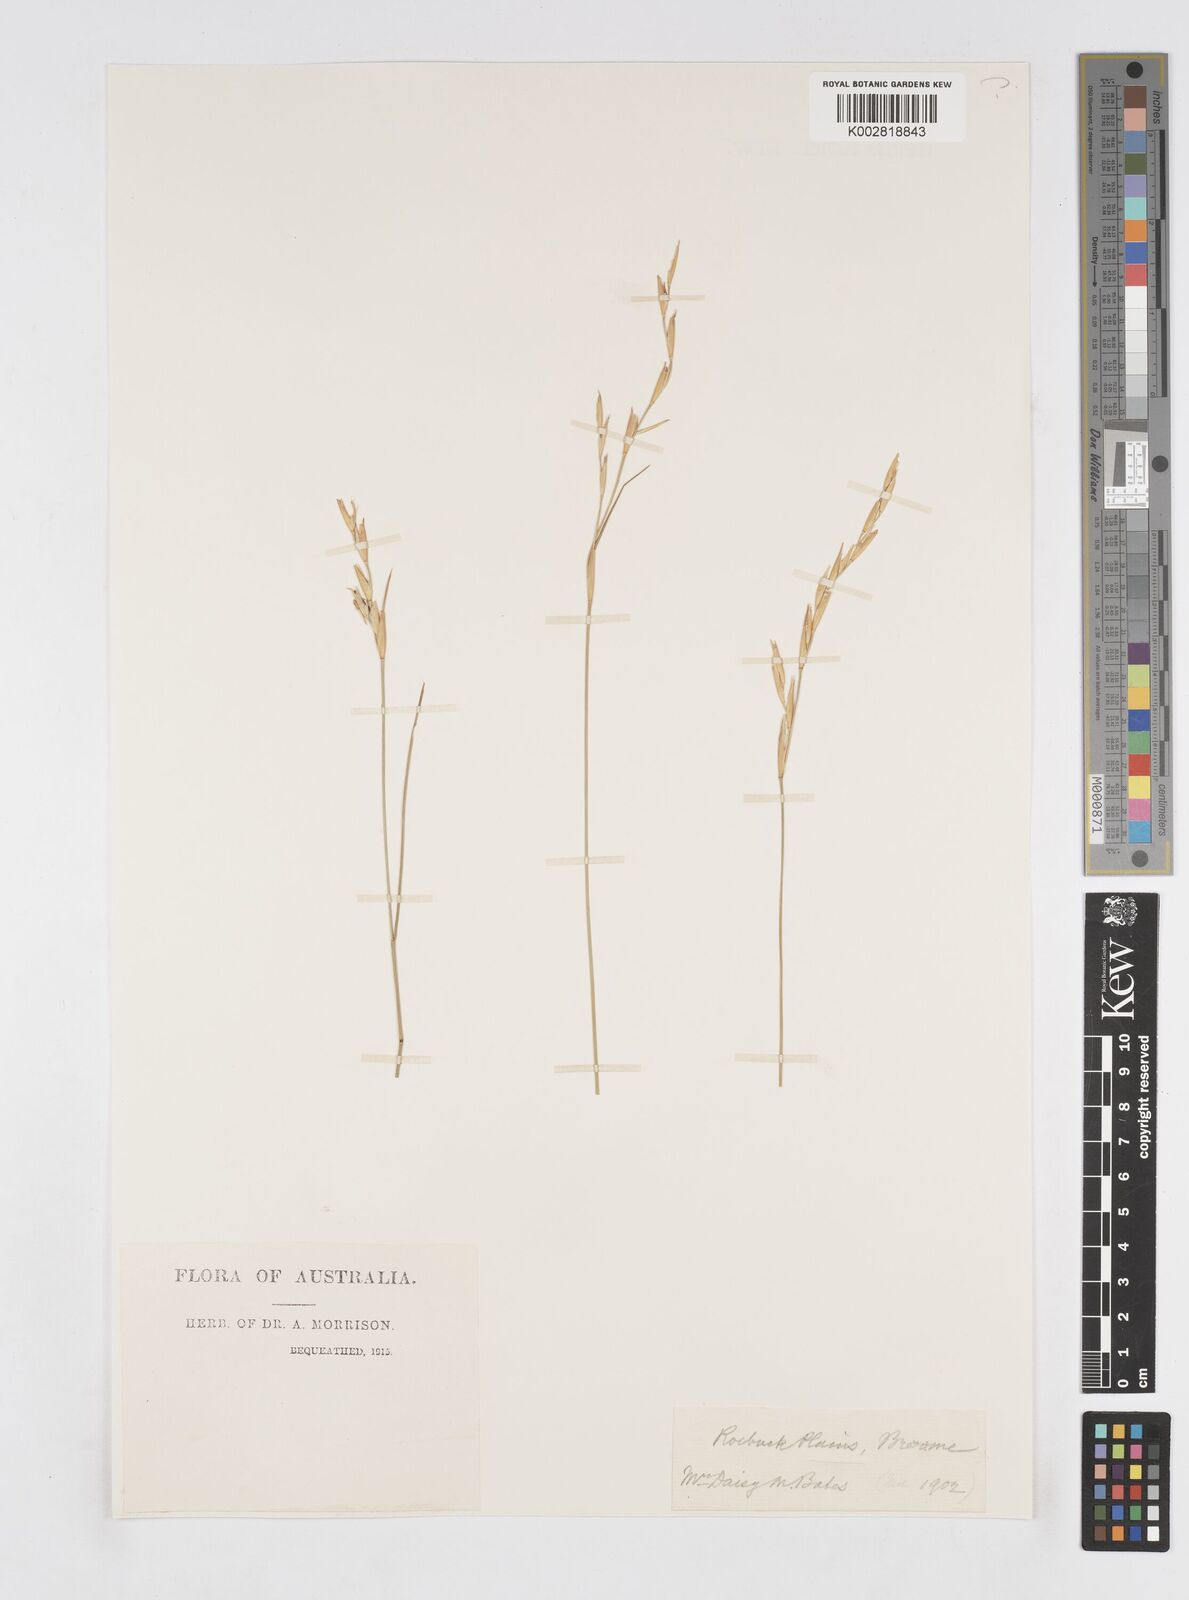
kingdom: Plantae
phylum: Tracheophyta
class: Liliopsida
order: Poales
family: Poaceae
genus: Xerochloa
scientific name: Xerochloa barbata
